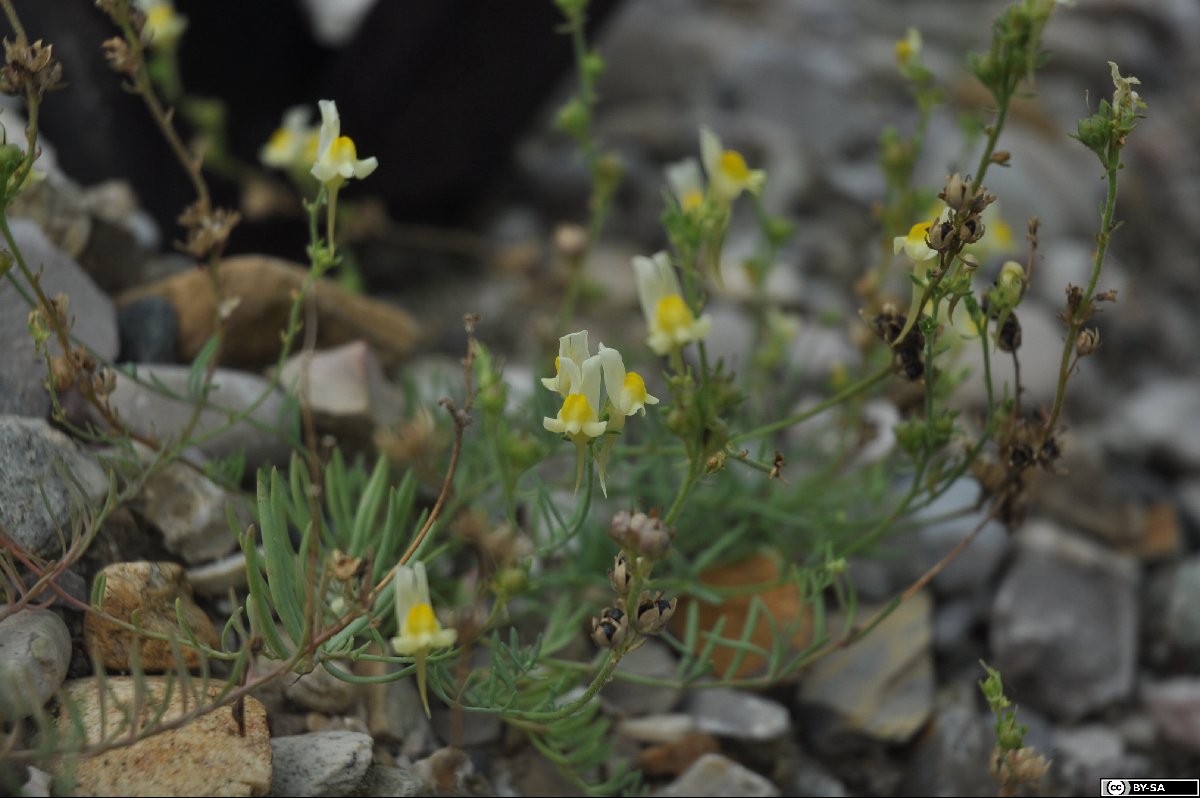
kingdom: Plantae
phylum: Tracheophyta
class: Magnoliopsida
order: Lamiales
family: Plantaginaceae
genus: Linaria
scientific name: Linaria supina
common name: Prostrate toadflax
